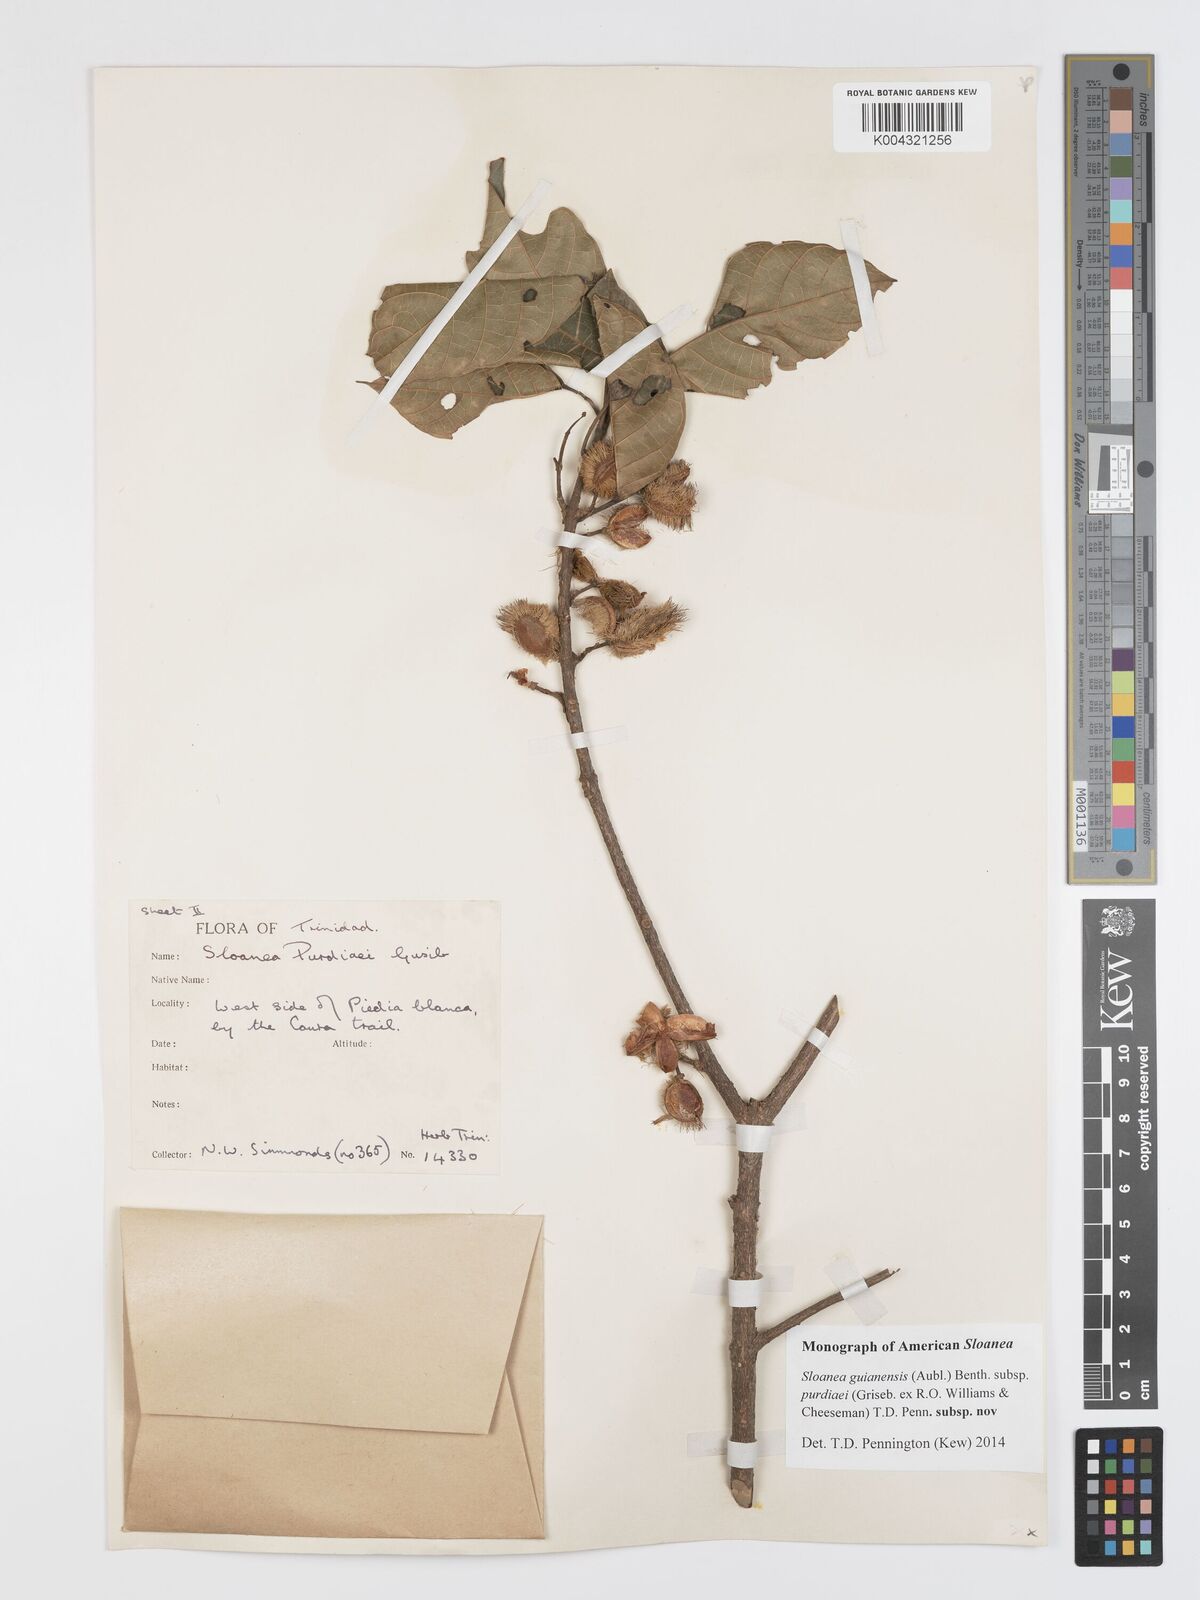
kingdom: Plantae
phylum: Tracheophyta
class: Magnoliopsida
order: Oxalidales
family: Elaeocarpaceae
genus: Sloanea
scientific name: Sloanea guianensis
